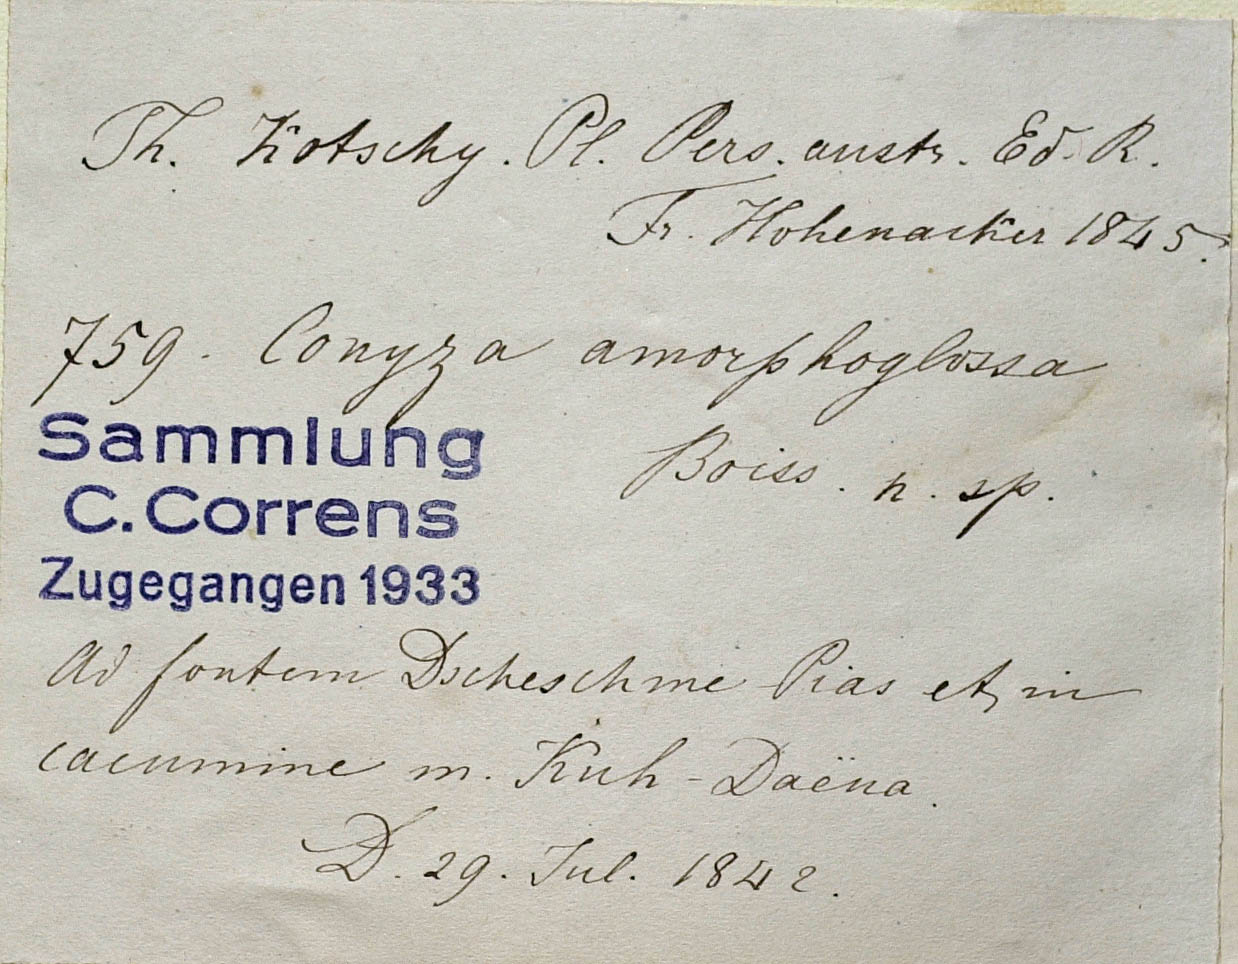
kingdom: Plantae
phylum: Tracheophyta
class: Magnoliopsida
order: Asterales
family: Asteraceae
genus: Psychrogeton
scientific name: Psychrogeton amorphoglossus
